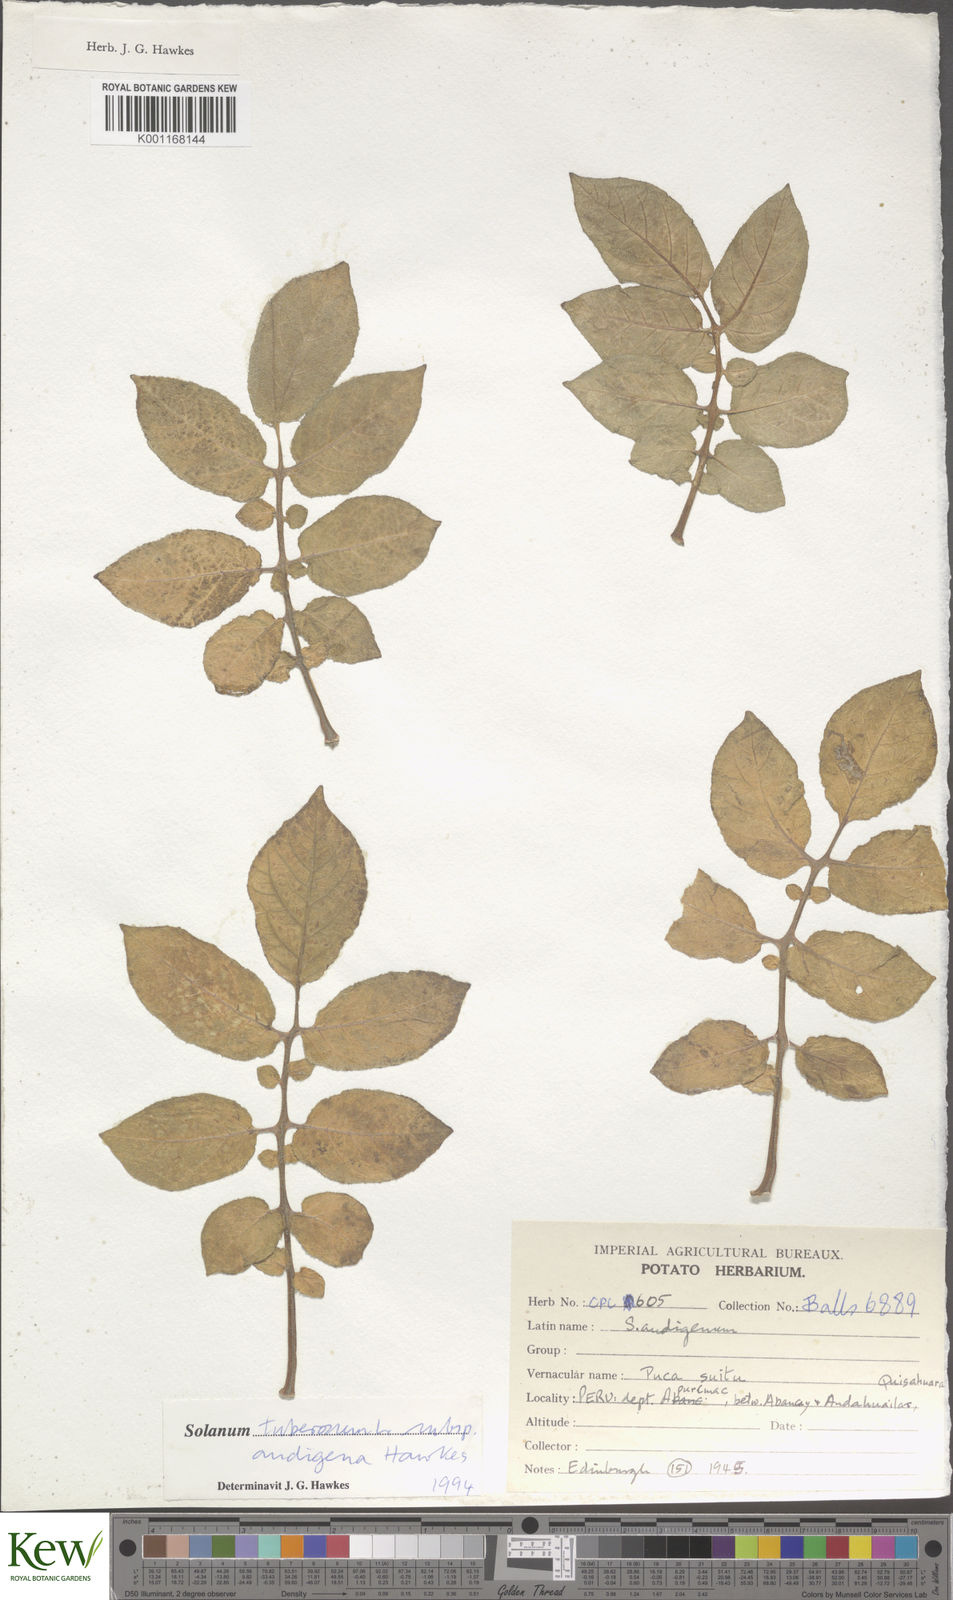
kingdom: Plantae
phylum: Tracheophyta
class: Magnoliopsida
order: Solanales
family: Solanaceae
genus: Solanum
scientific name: Solanum tuberosum
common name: Potato
